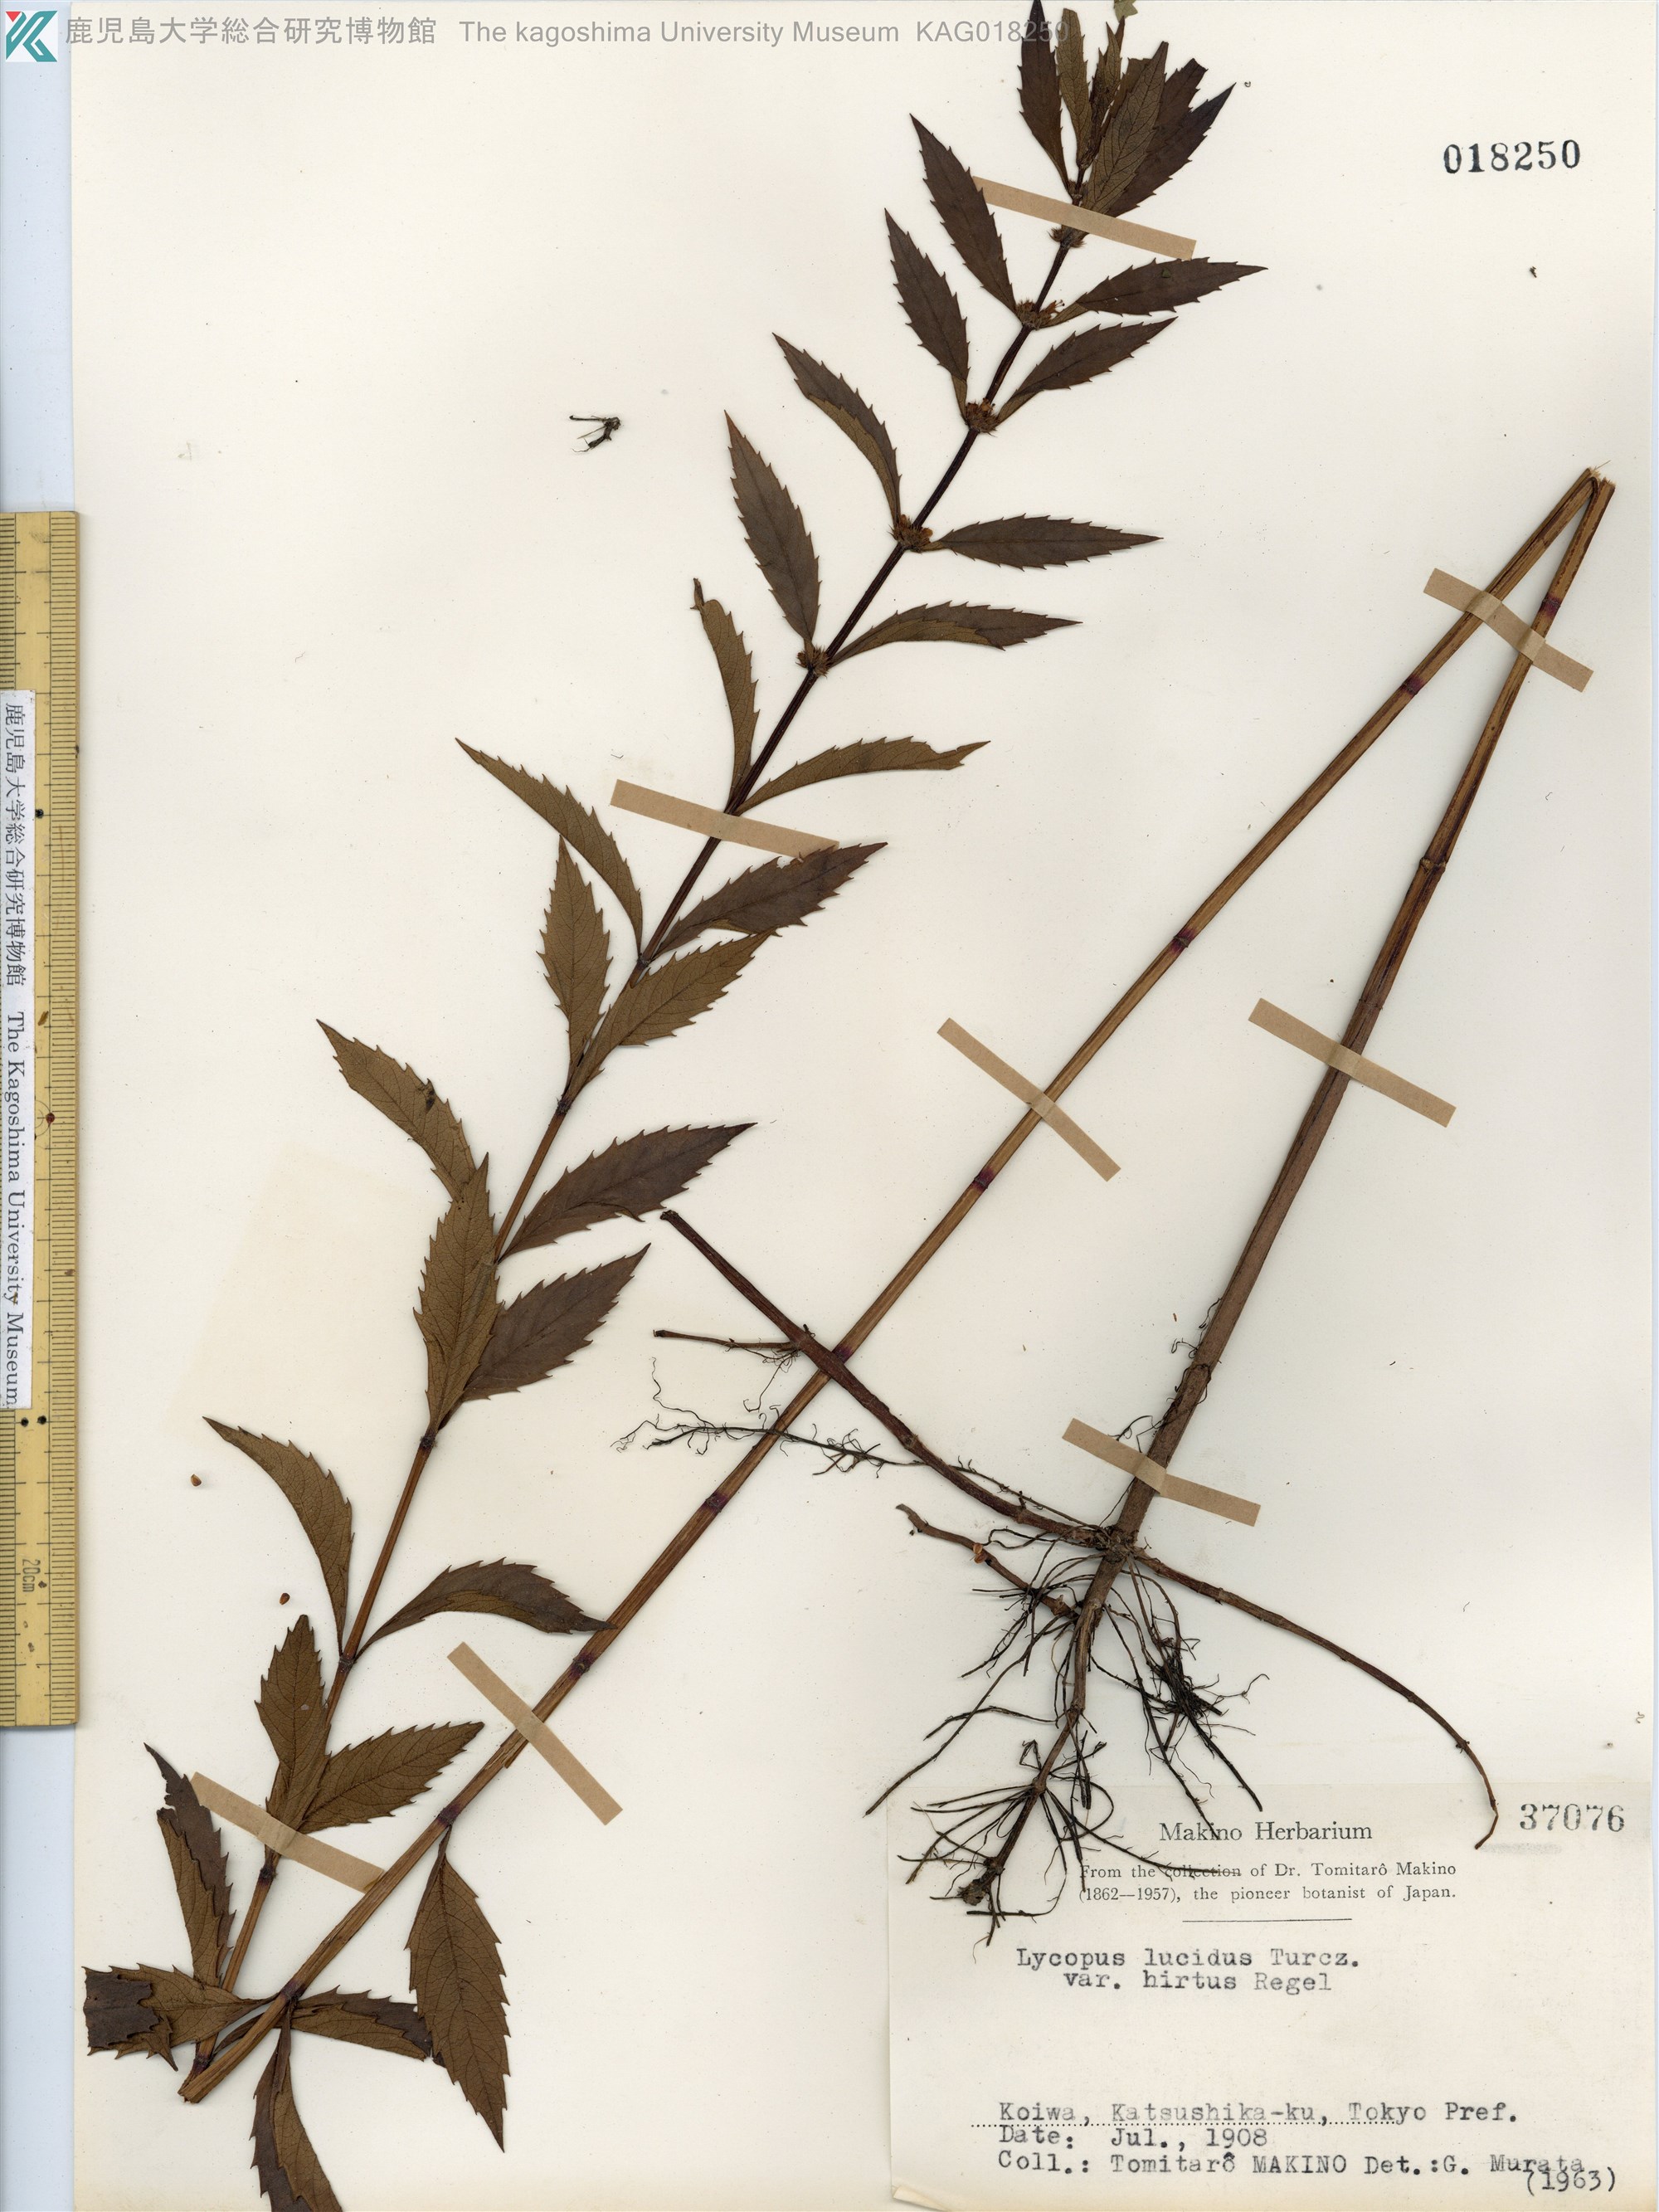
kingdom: Plantae
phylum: Tracheophyta
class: Magnoliopsida
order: Lamiales
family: Lamiaceae
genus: Lycopus
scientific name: Lycopus lucidus
